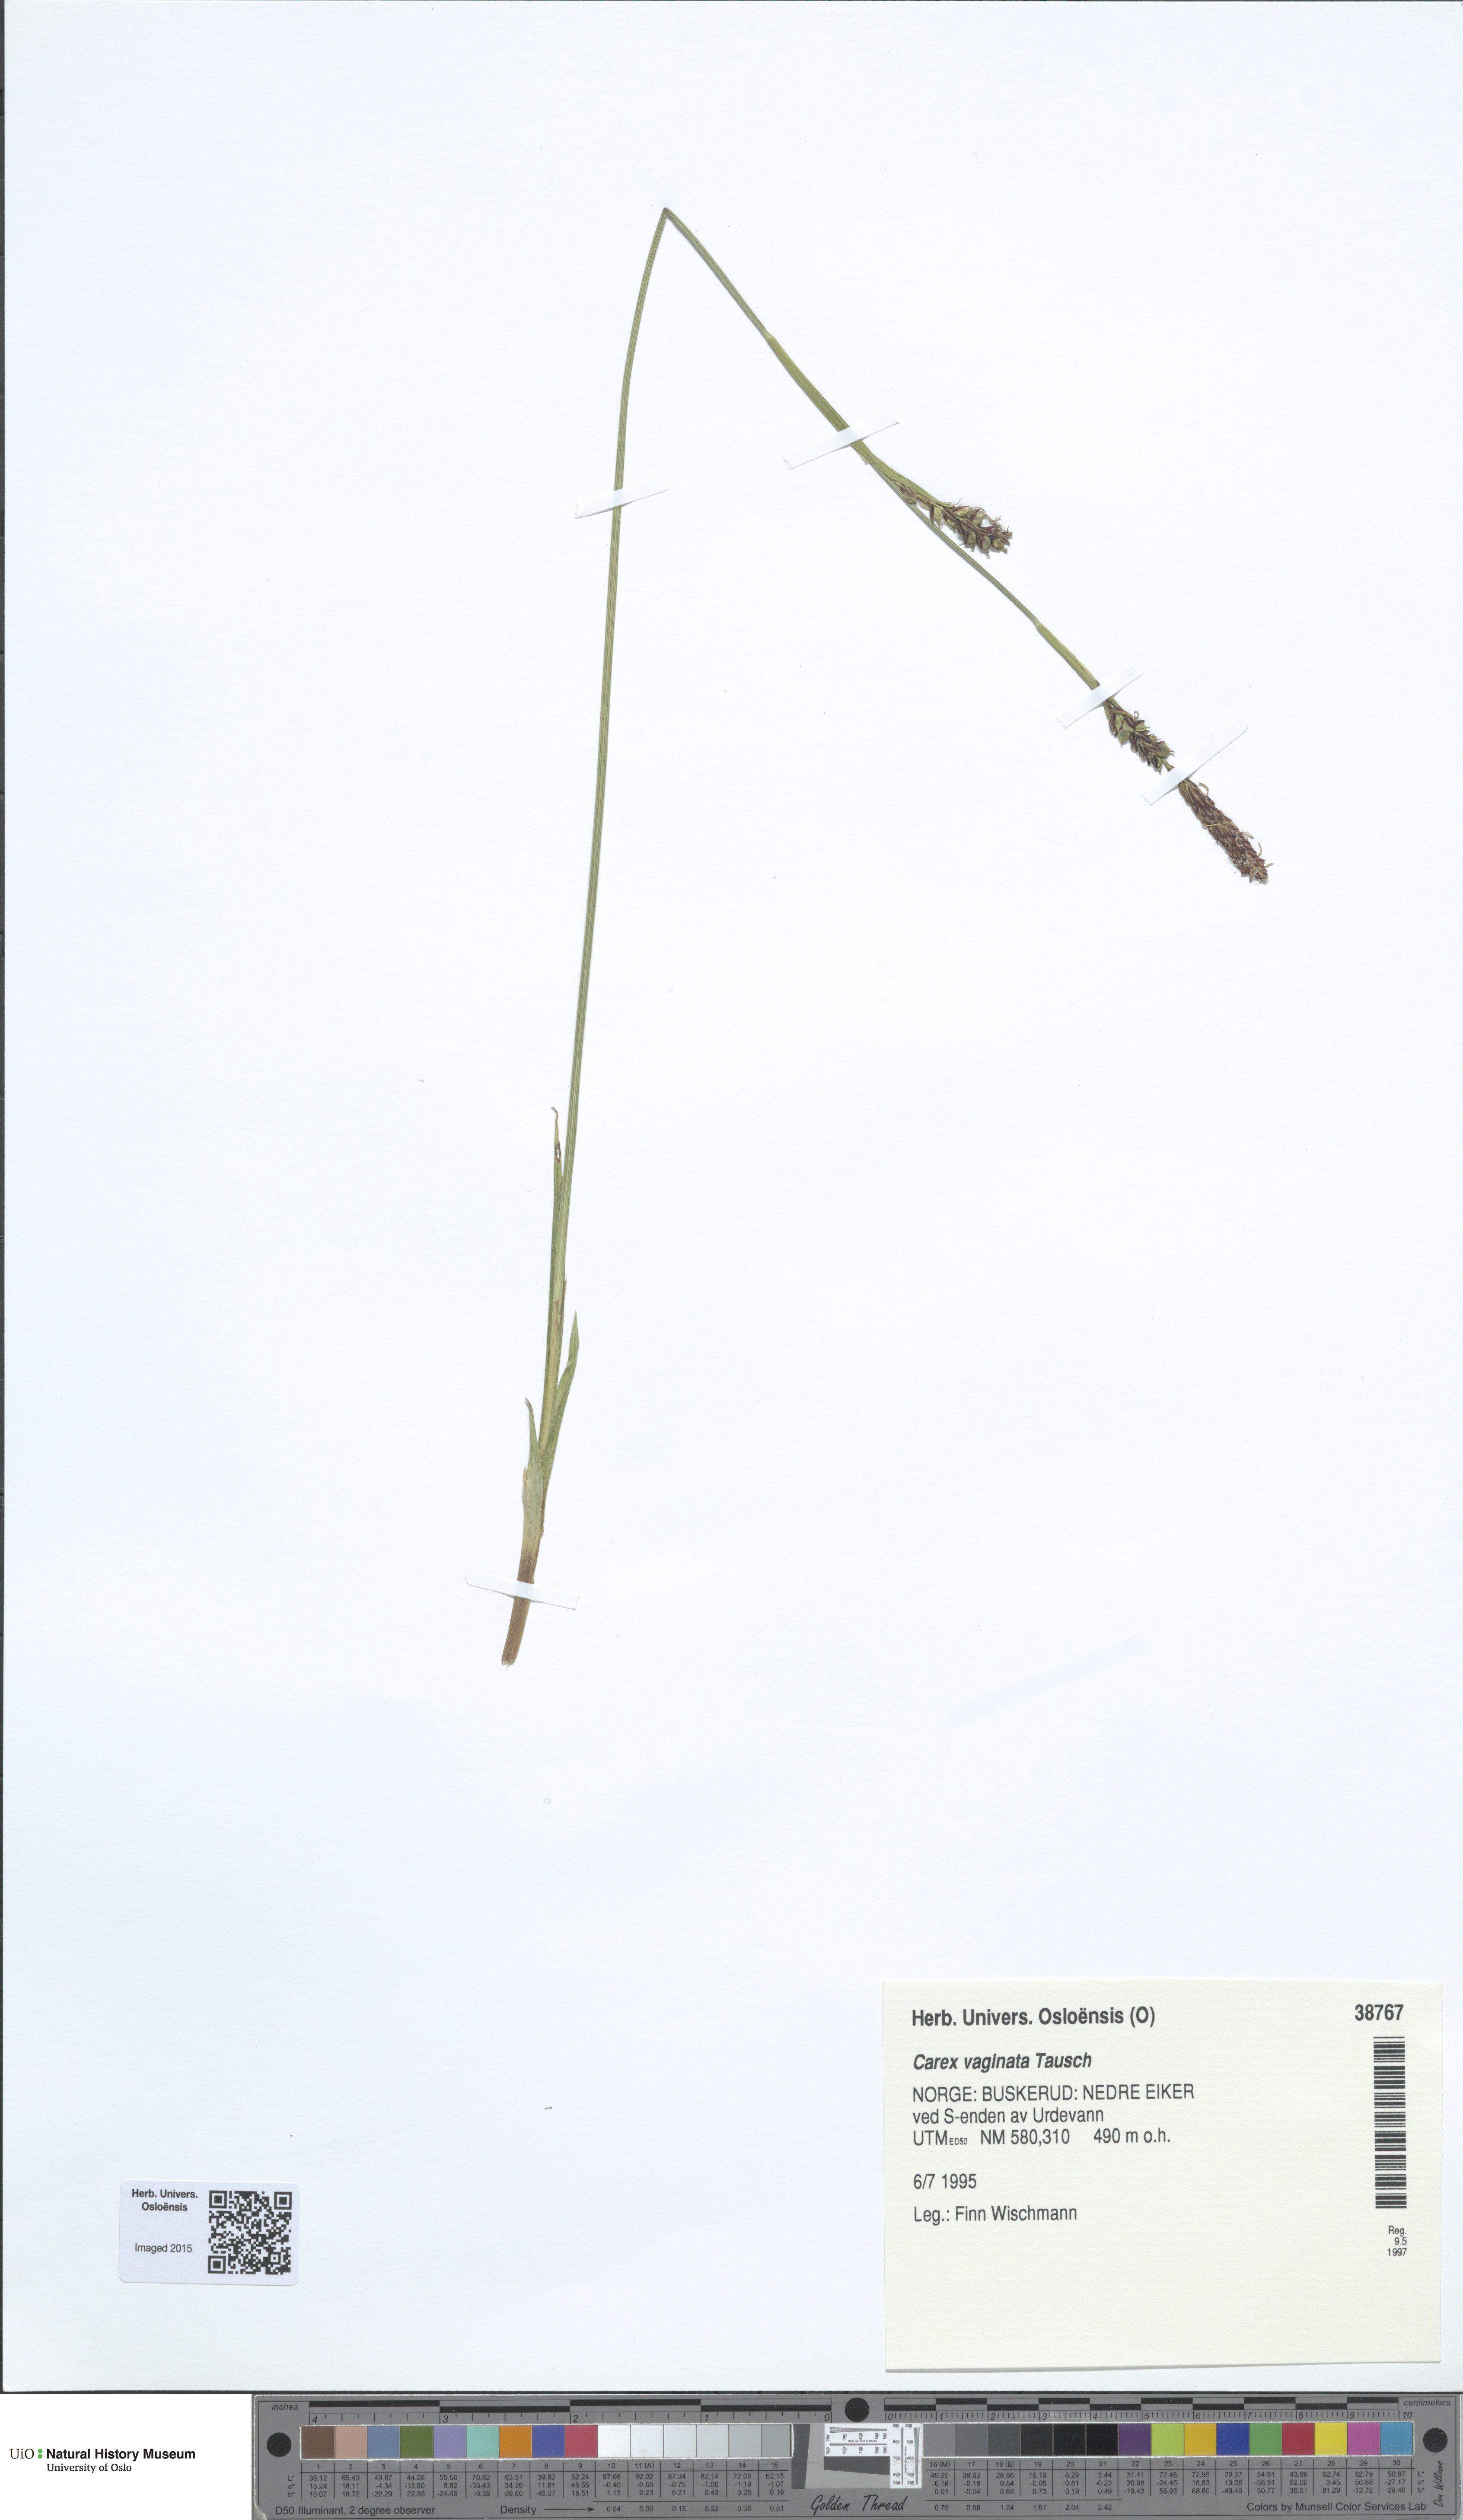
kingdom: Plantae
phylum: Tracheophyta
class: Liliopsida
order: Poales
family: Cyperaceae
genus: Carex
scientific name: Carex vaginata
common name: Sheathed sedge
